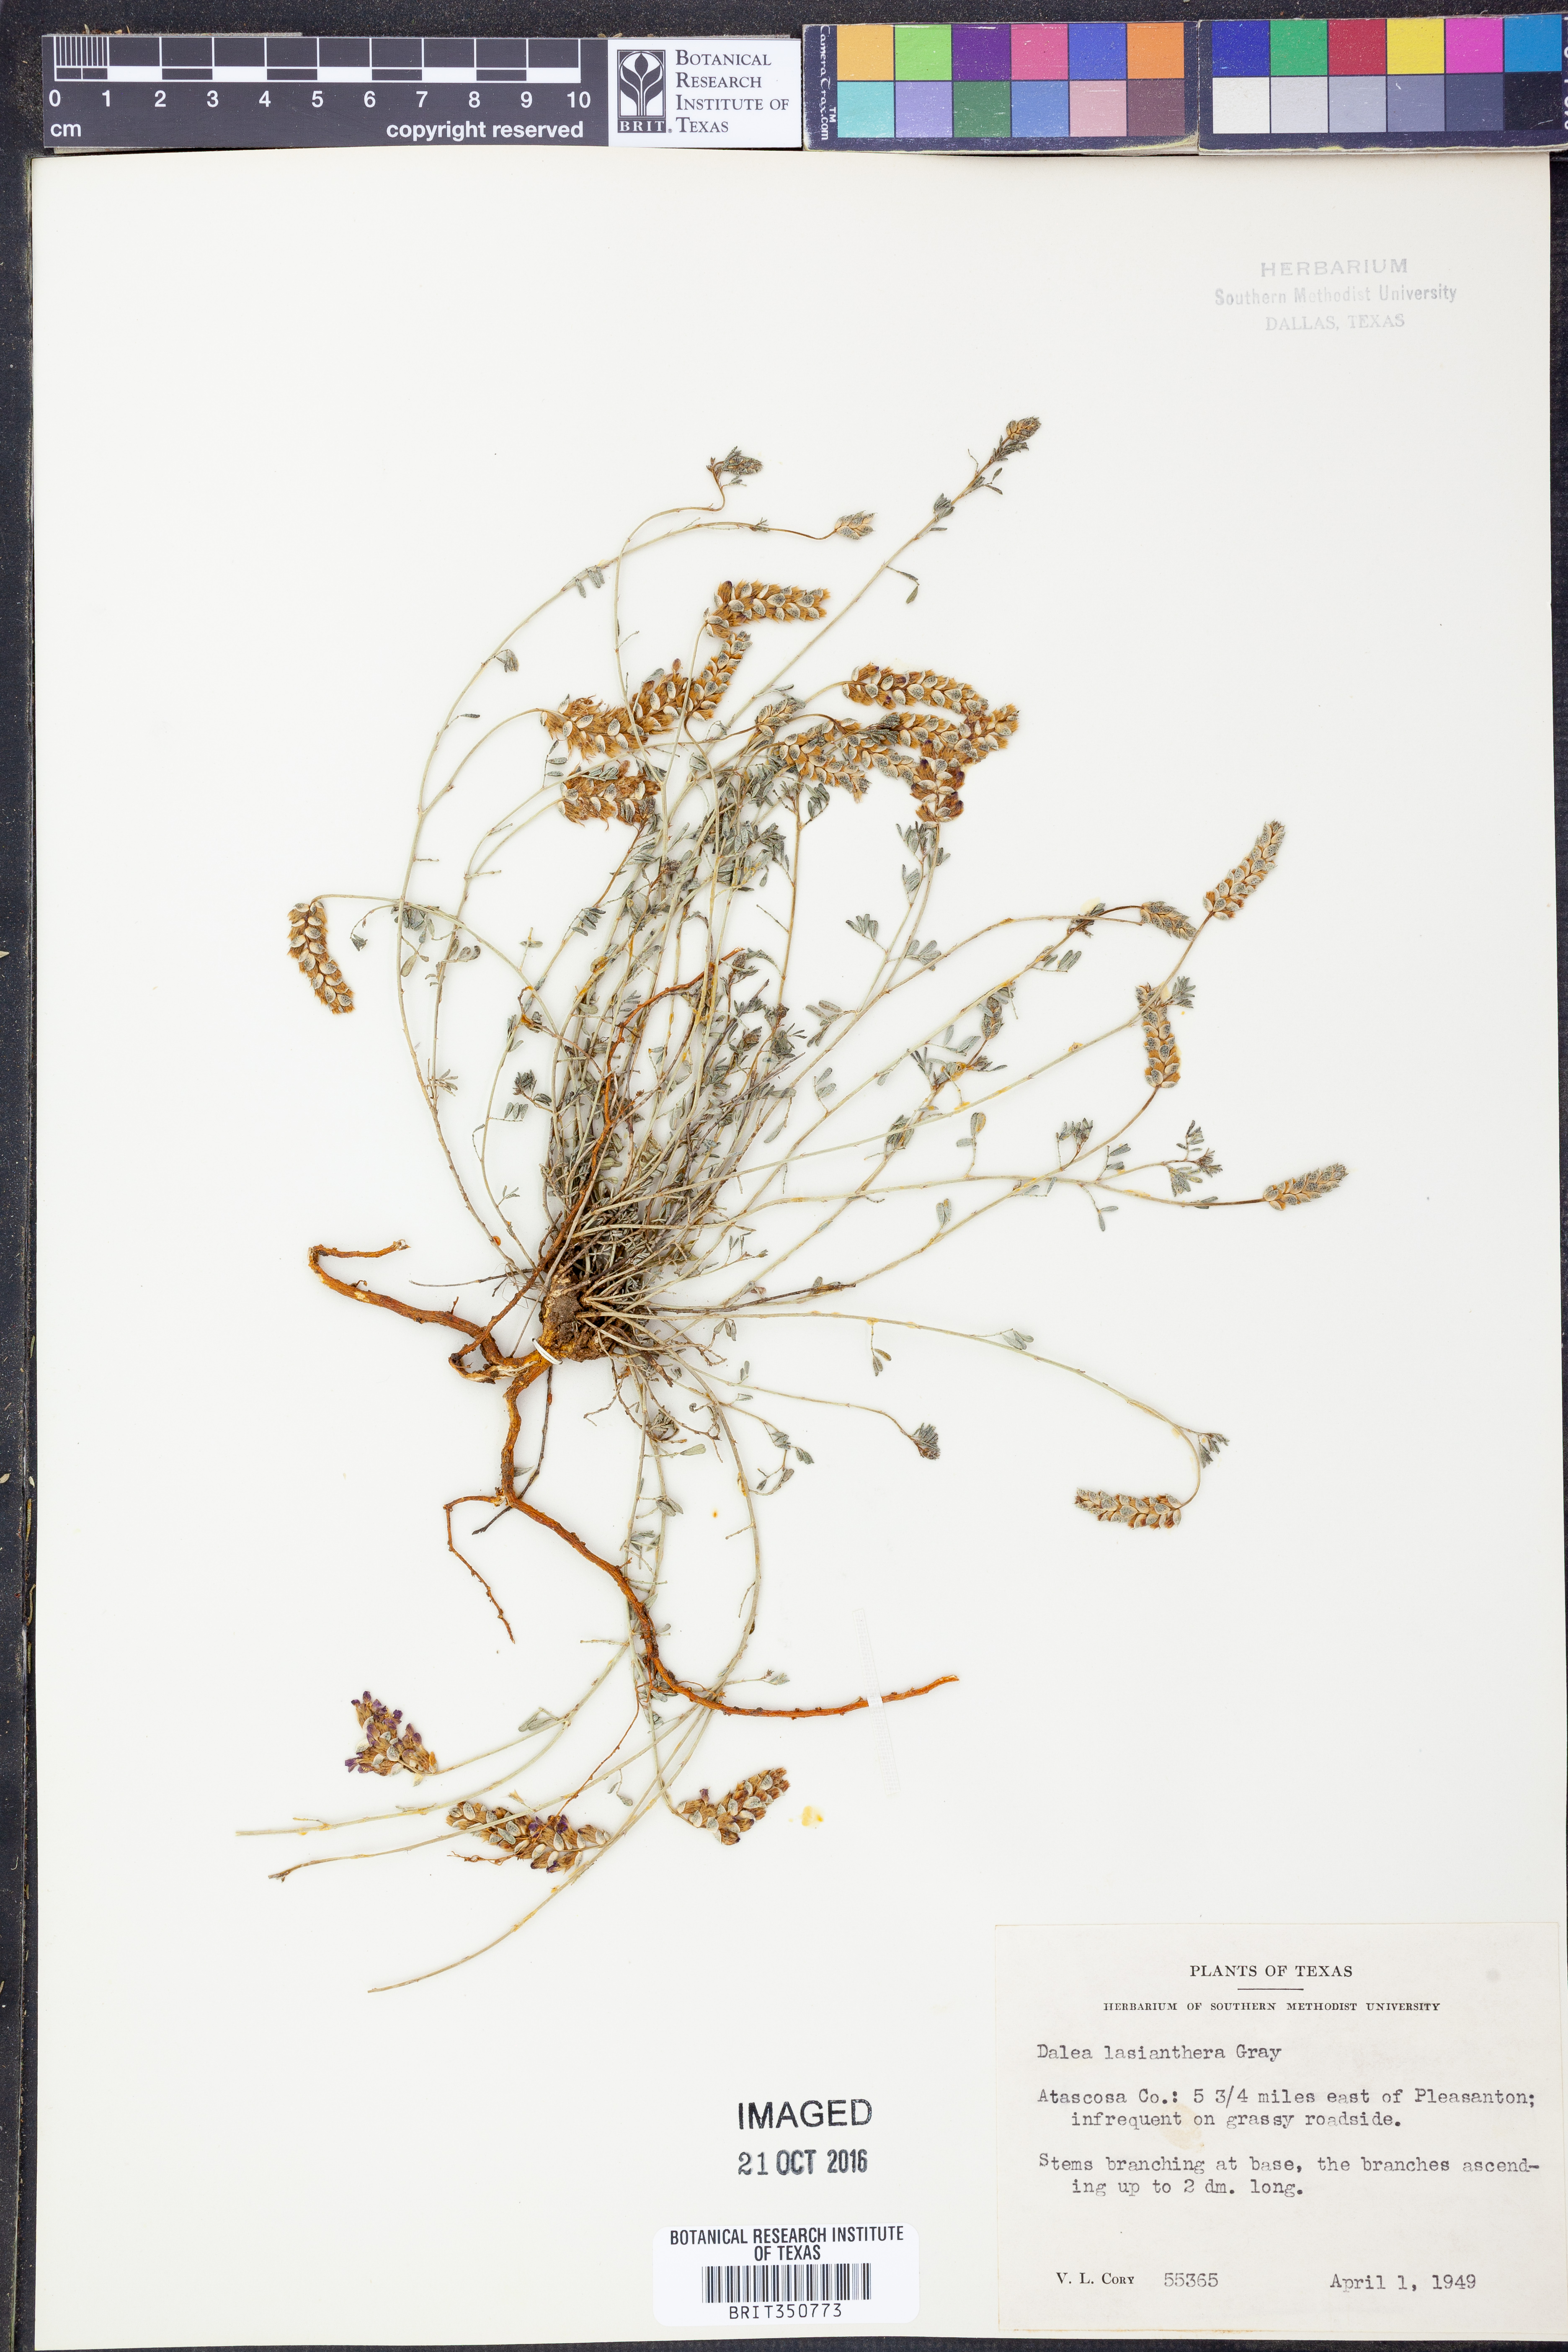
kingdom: Plantae
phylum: Tracheophyta
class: Magnoliopsida
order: Fabales
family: Fabaceae
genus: Dalea
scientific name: Dalea lasiathera
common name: Purple prairie-clover
